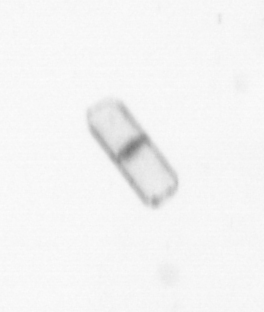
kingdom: Chromista
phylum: Ochrophyta
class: Bacillariophyceae
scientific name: Bacillariophyceae
